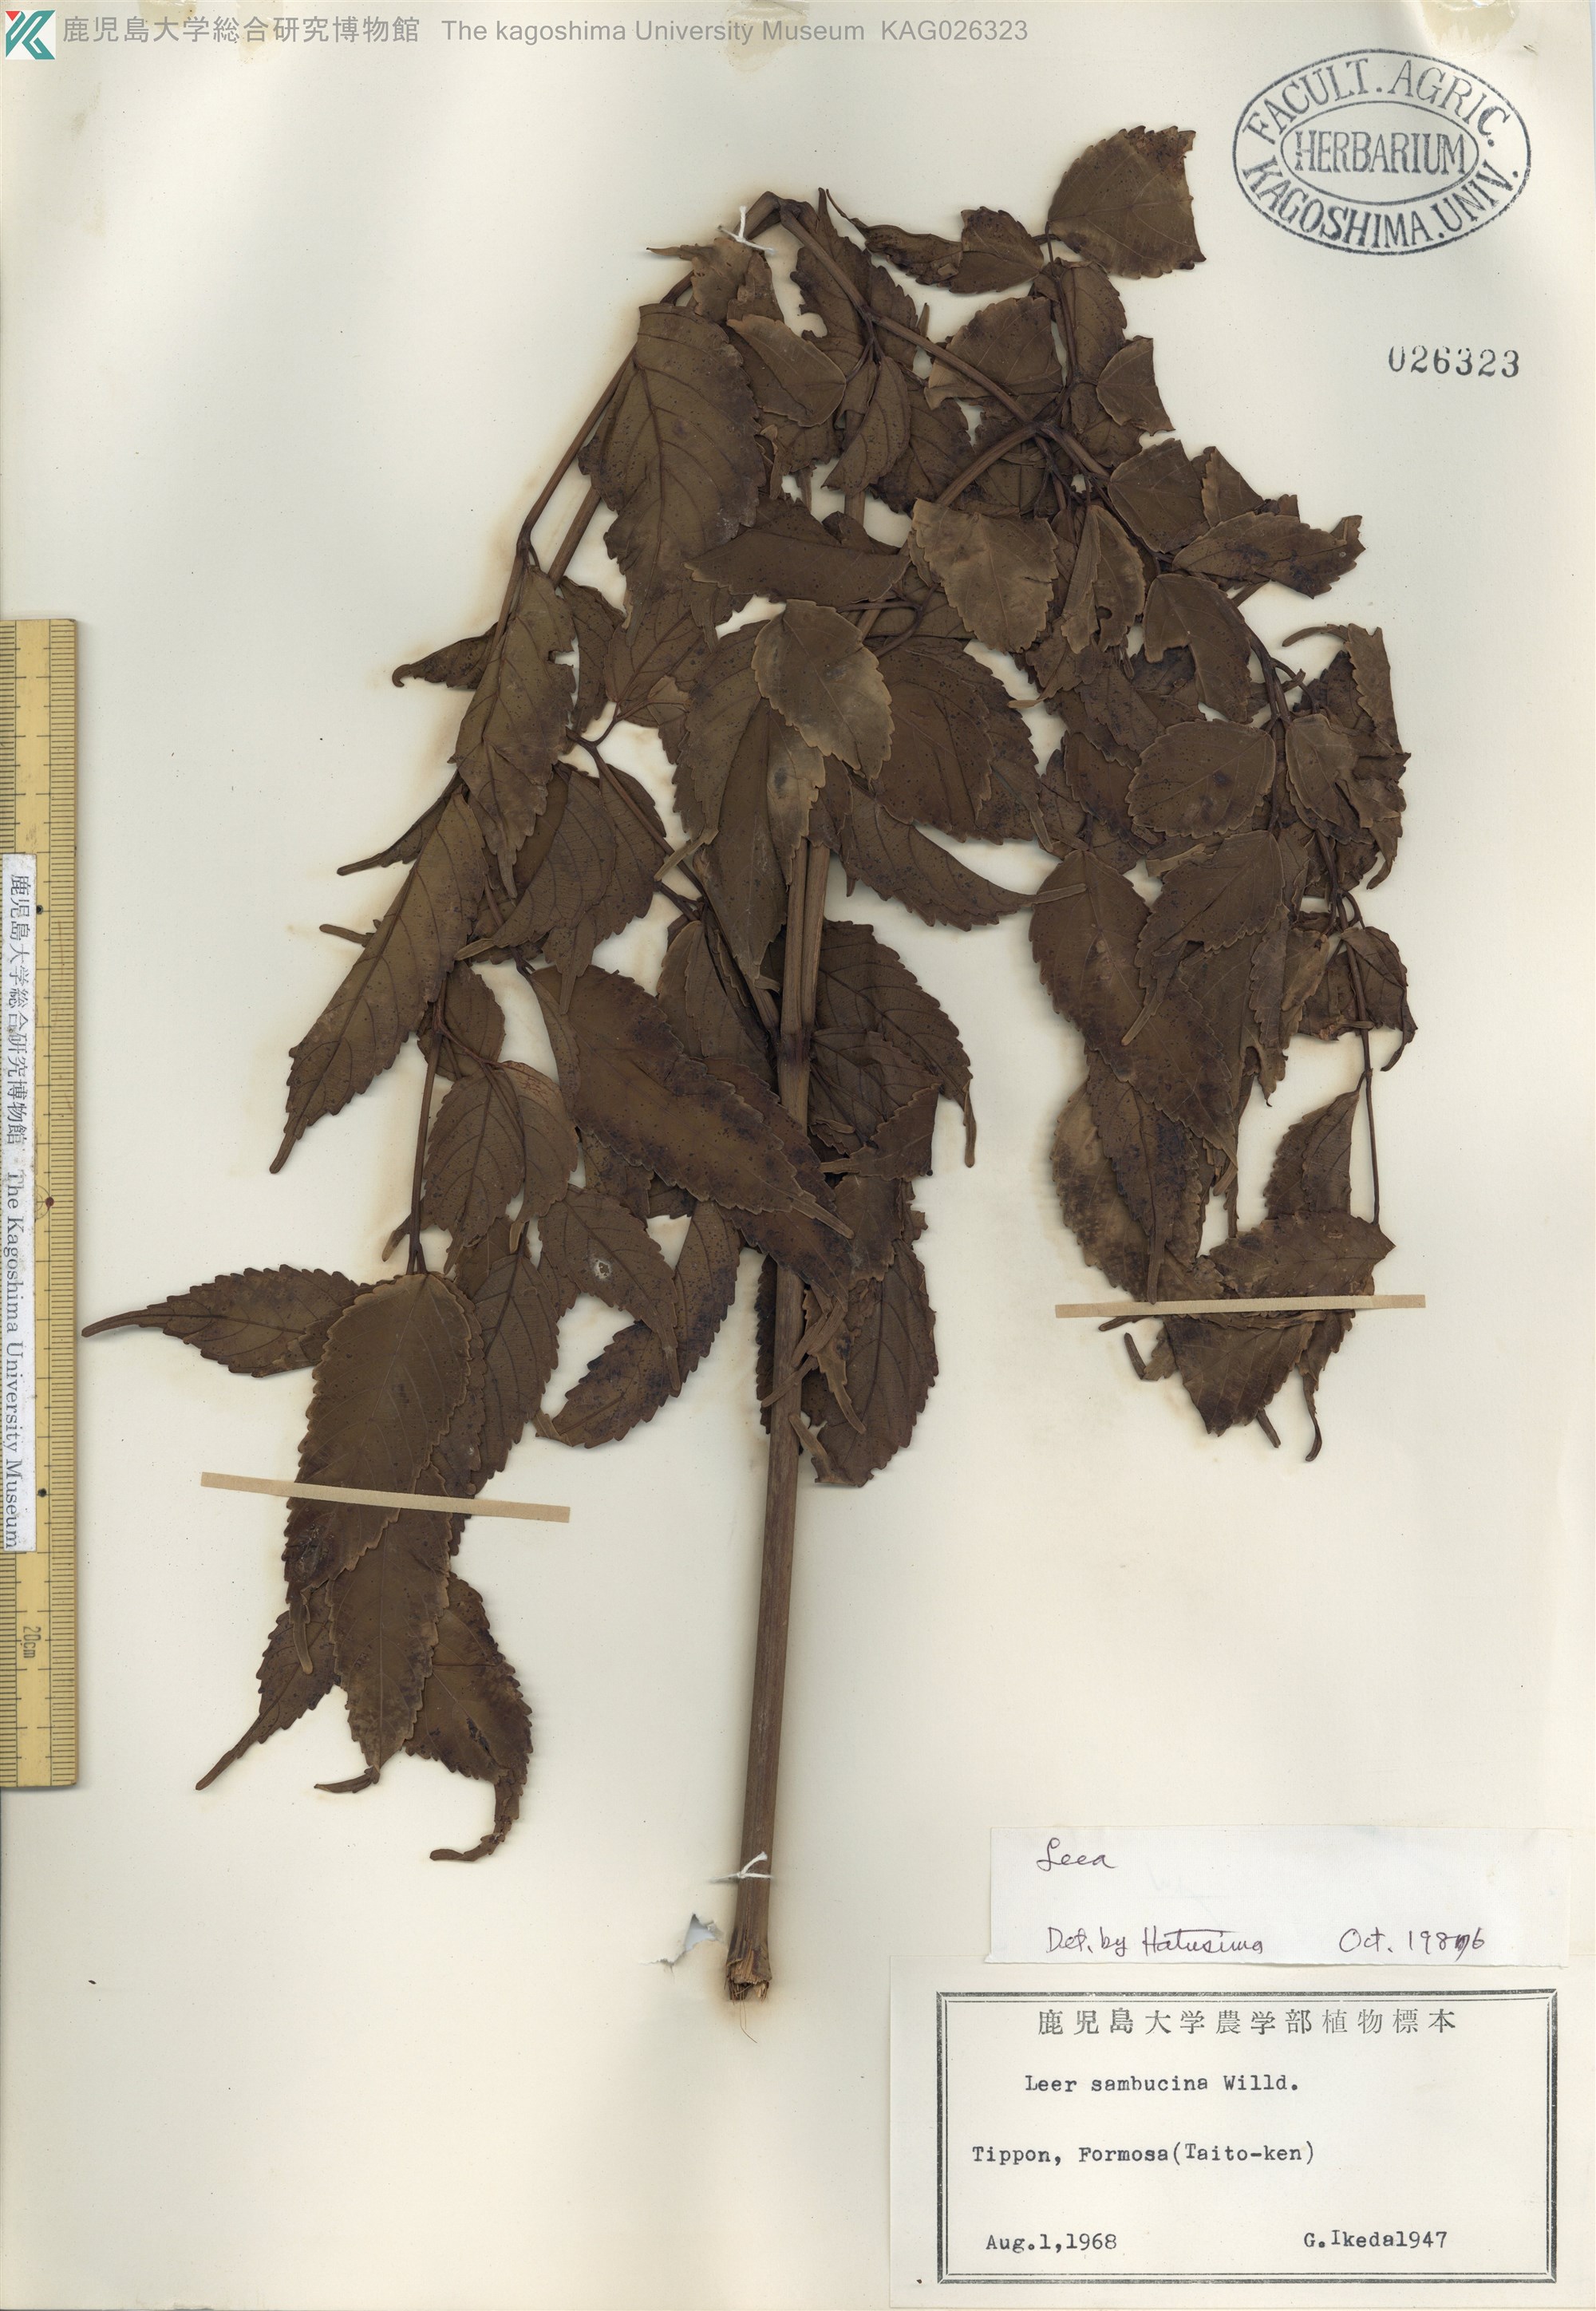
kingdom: Plantae
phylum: Tracheophyta
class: Magnoliopsida
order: Vitales
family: Vitaceae
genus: Leea
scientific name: Leea
